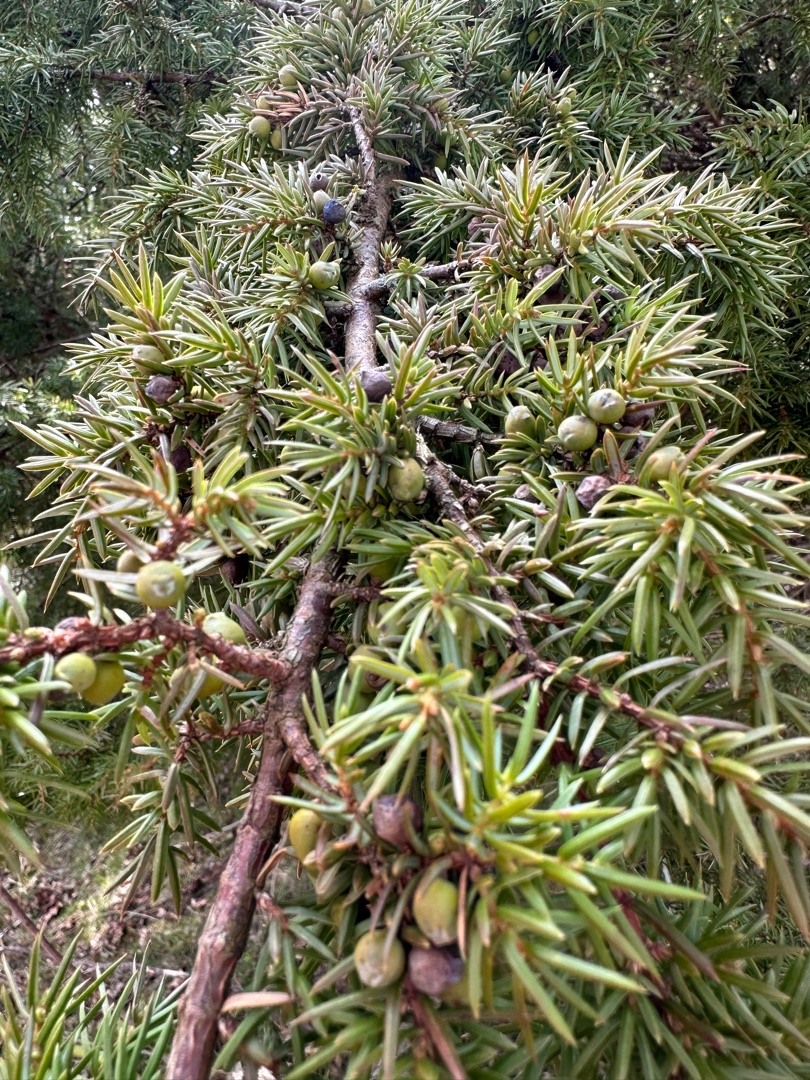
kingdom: Plantae
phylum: Tracheophyta
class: Pinopsida
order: Pinales
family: Cupressaceae
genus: Juniperus
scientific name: Juniperus communis
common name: Almindelig ene
